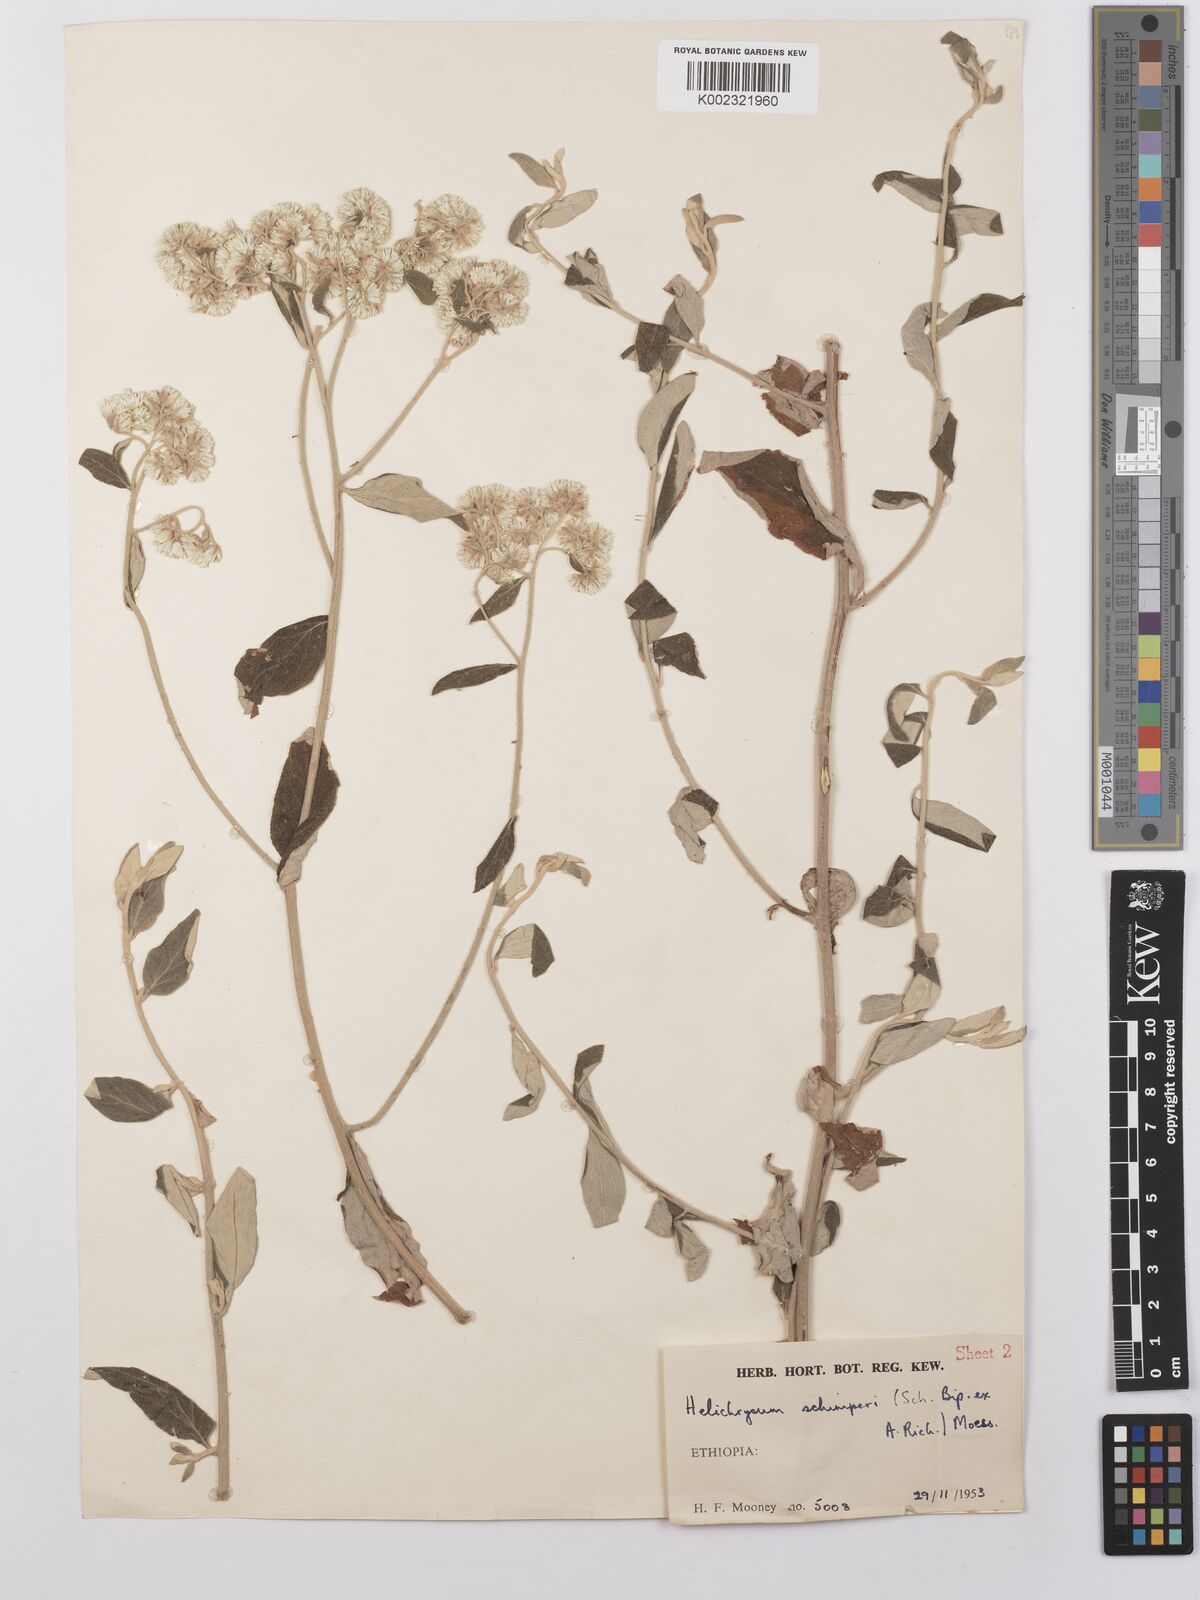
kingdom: Plantae
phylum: Tracheophyta
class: Magnoliopsida
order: Asterales
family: Asteraceae
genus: Helichrysum
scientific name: Helichrysum schimperi
